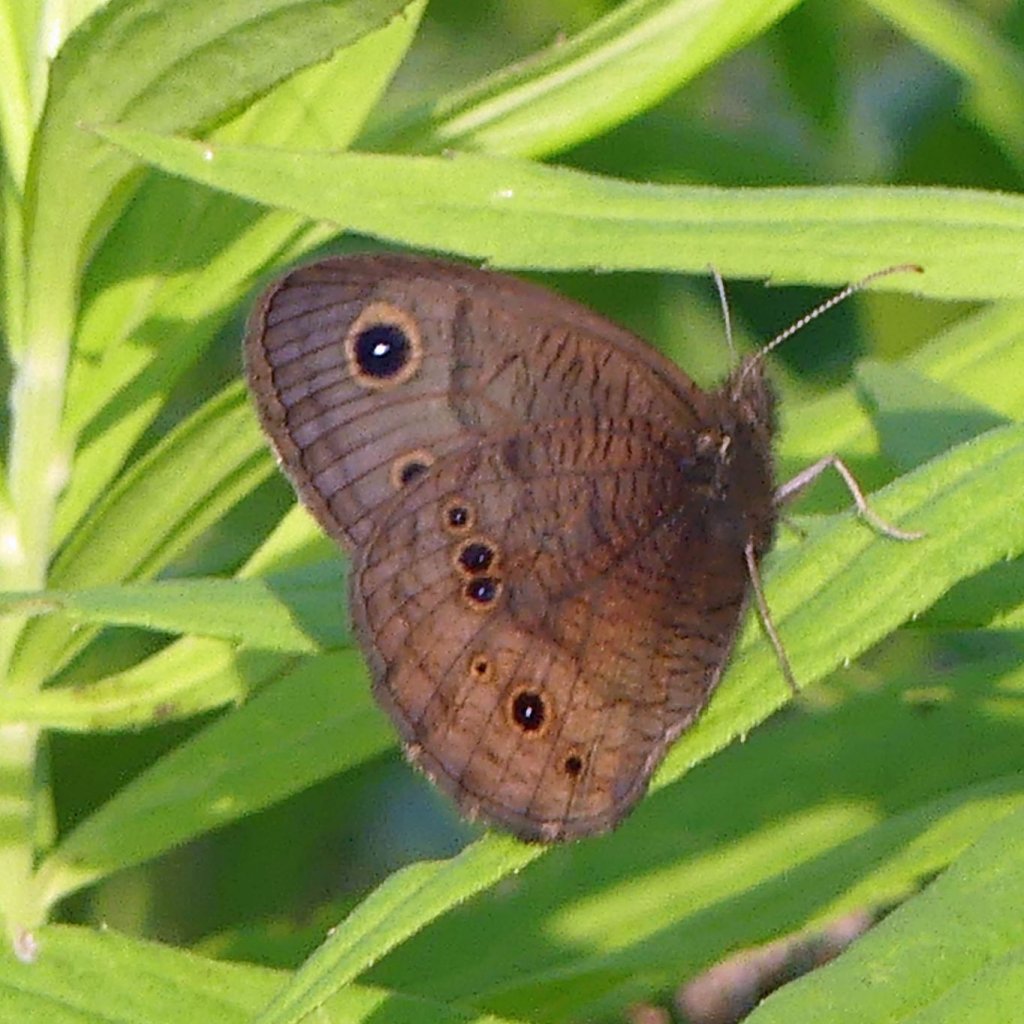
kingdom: Animalia
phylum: Arthropoda
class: Insecta
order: Lepidoptera
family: Nymphalidae
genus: Cercyonis
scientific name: Cercyonis pegala
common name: Common Wood-Nymph
